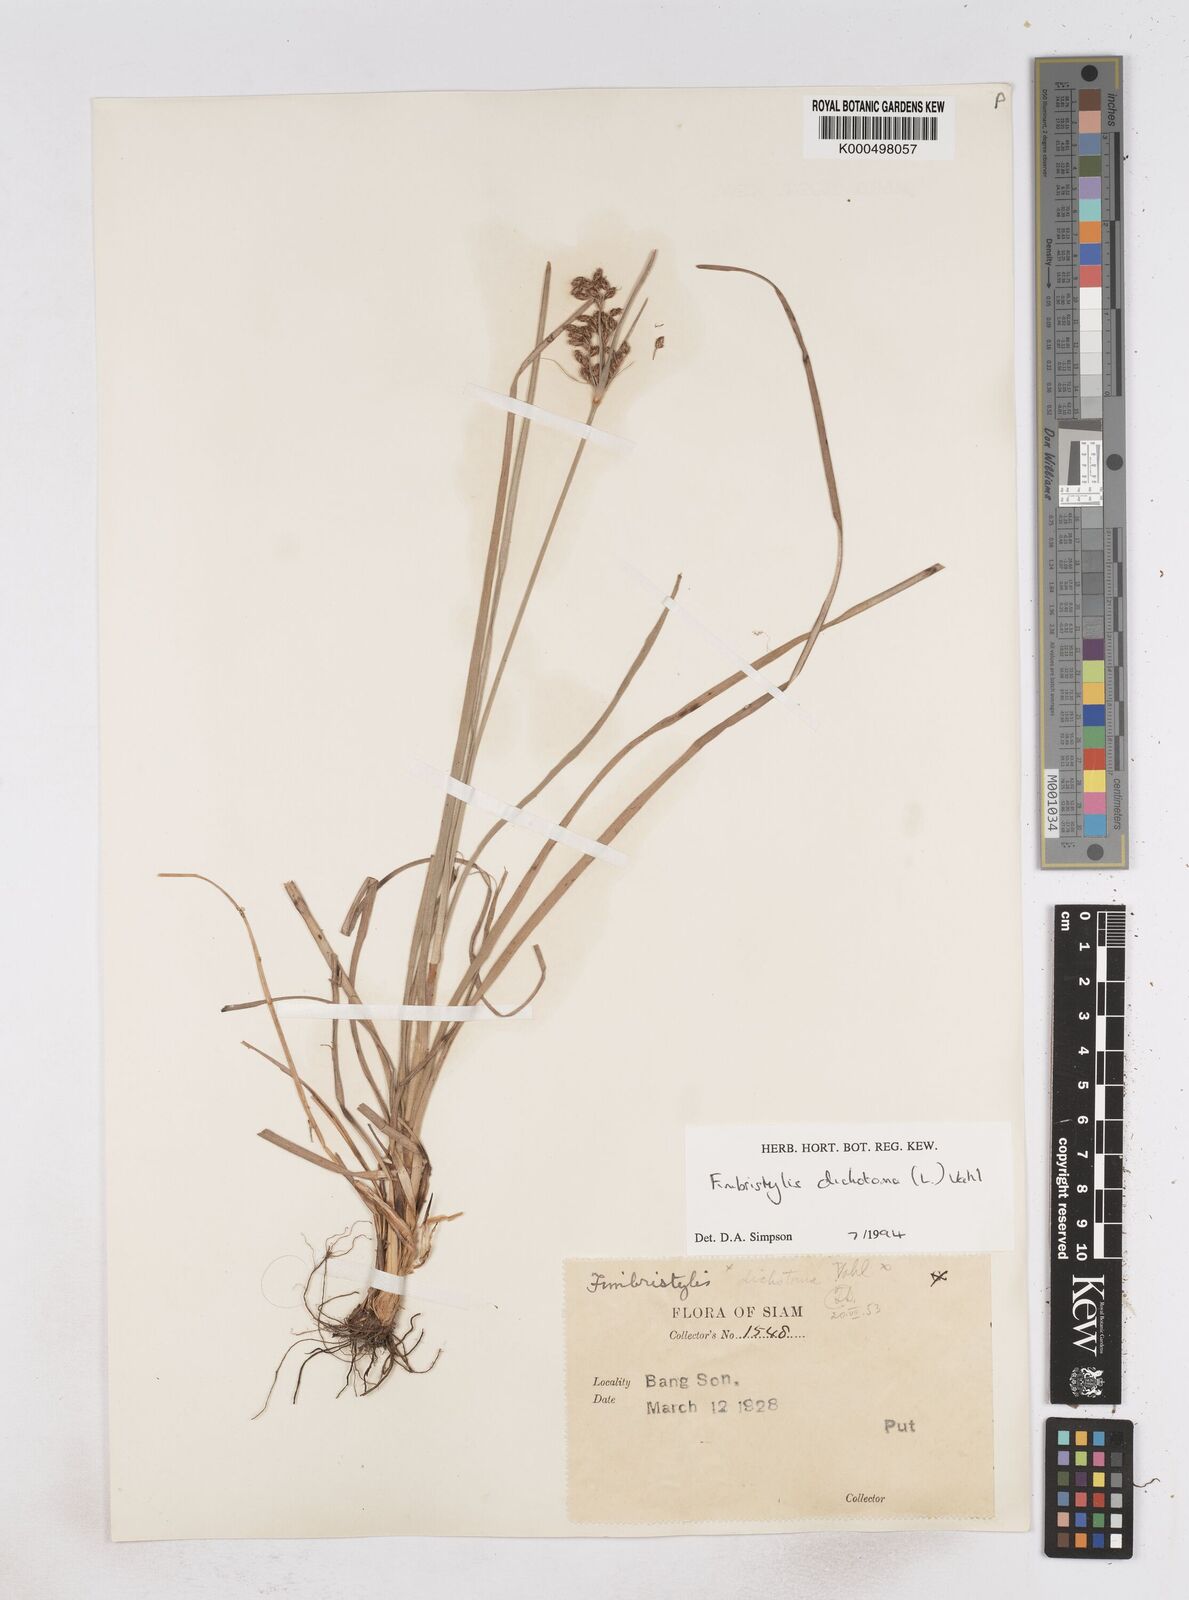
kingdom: Plantae
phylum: Tracheophyta
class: Liliopsida
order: Poales
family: Cyperaceae
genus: Fimbristylis
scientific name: Fimbristylis dichotoma
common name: Forked fimbry
